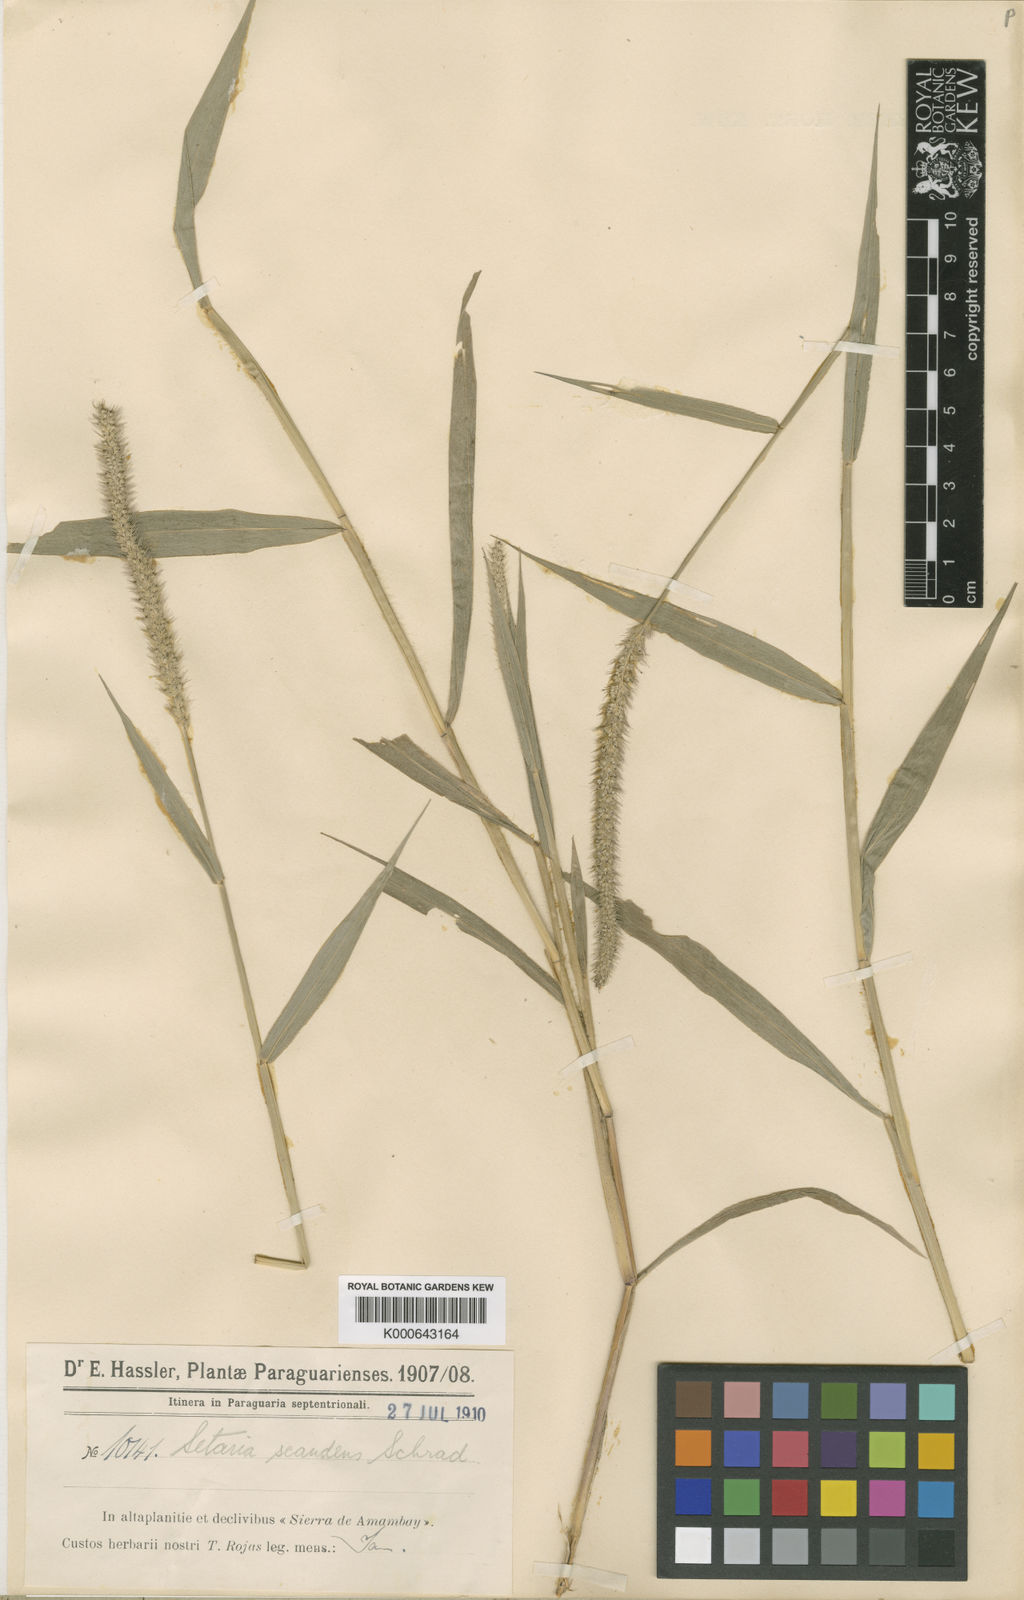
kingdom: Plantae
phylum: Tracheophyta
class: Liliopsida
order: Poales
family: Poaceae
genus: Setaria
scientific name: Setaria scandens
